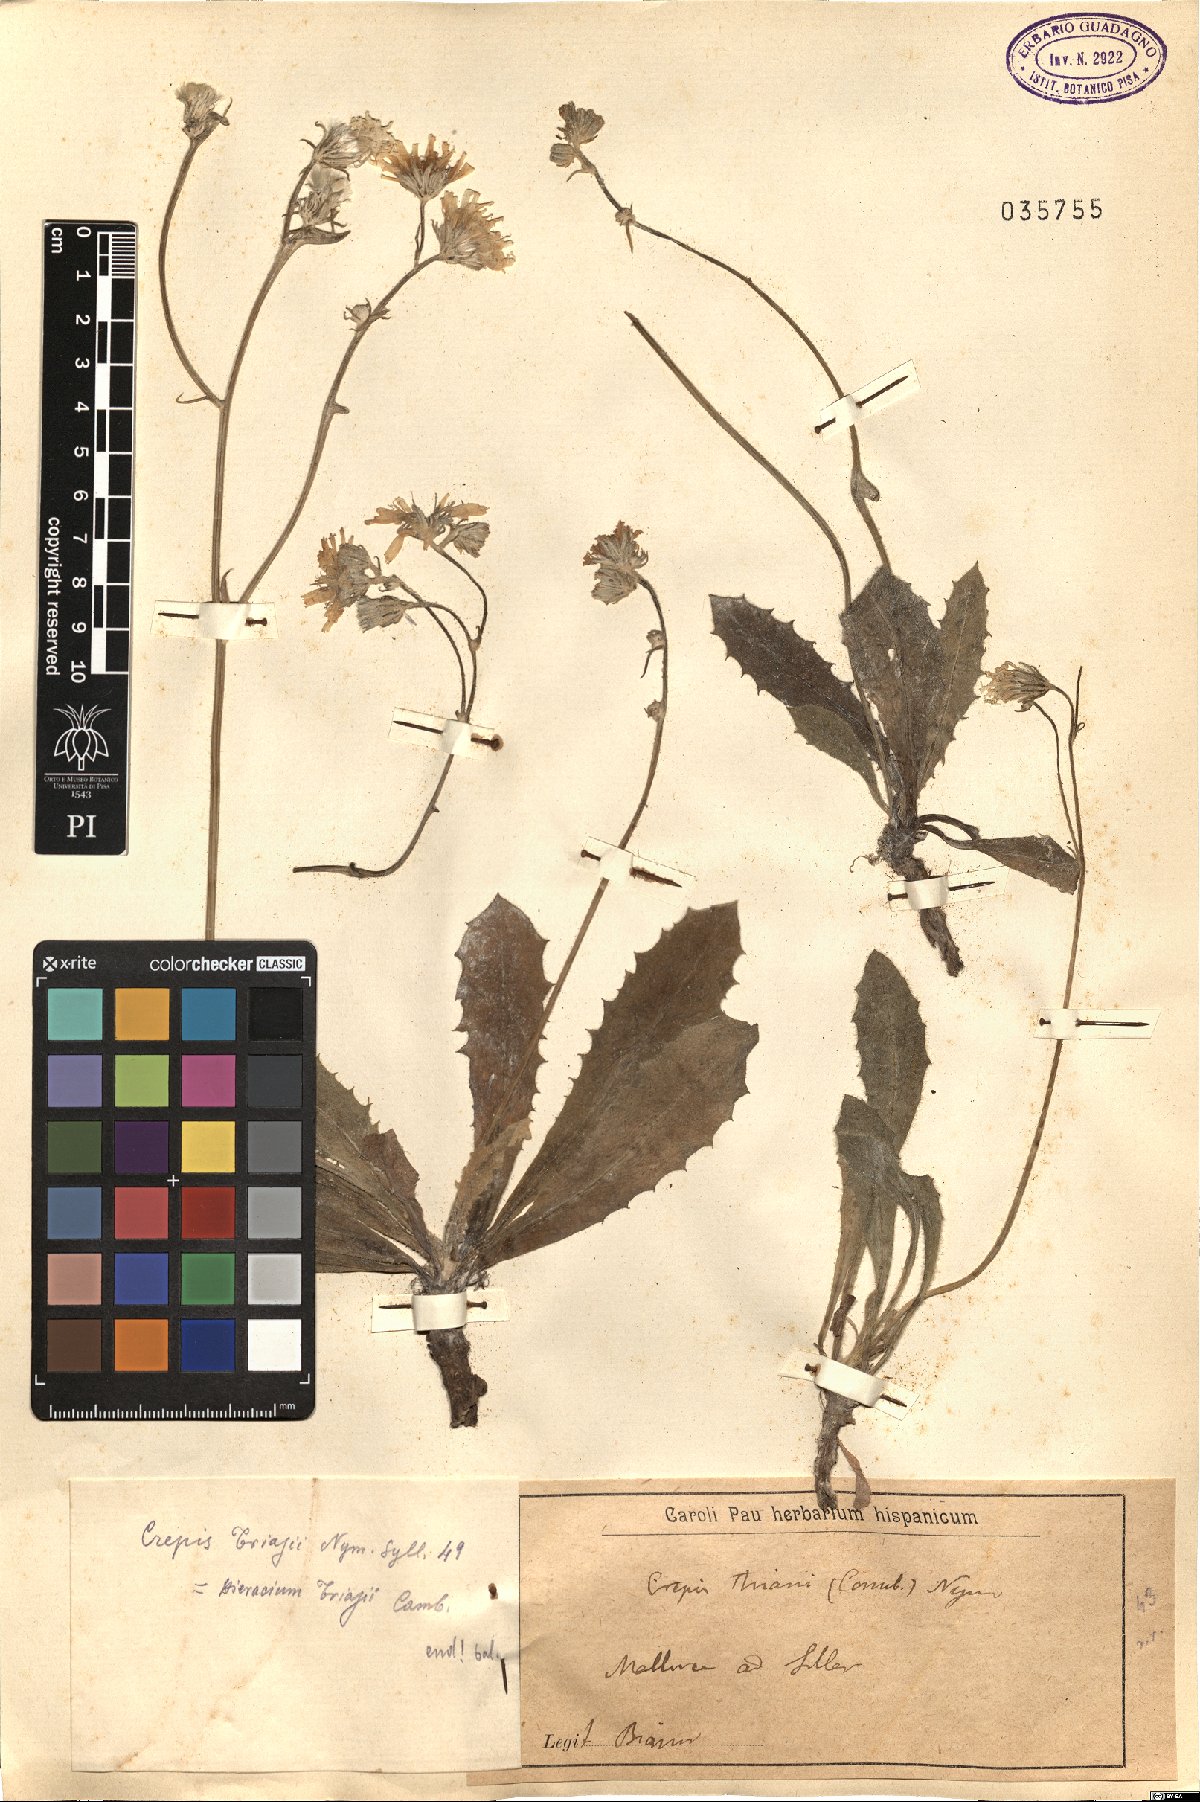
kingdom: Plantae
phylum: Tracheophyta
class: Magnoliopsida
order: Asterales
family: Asteraceae
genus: Crepis
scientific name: Crepis triasii
